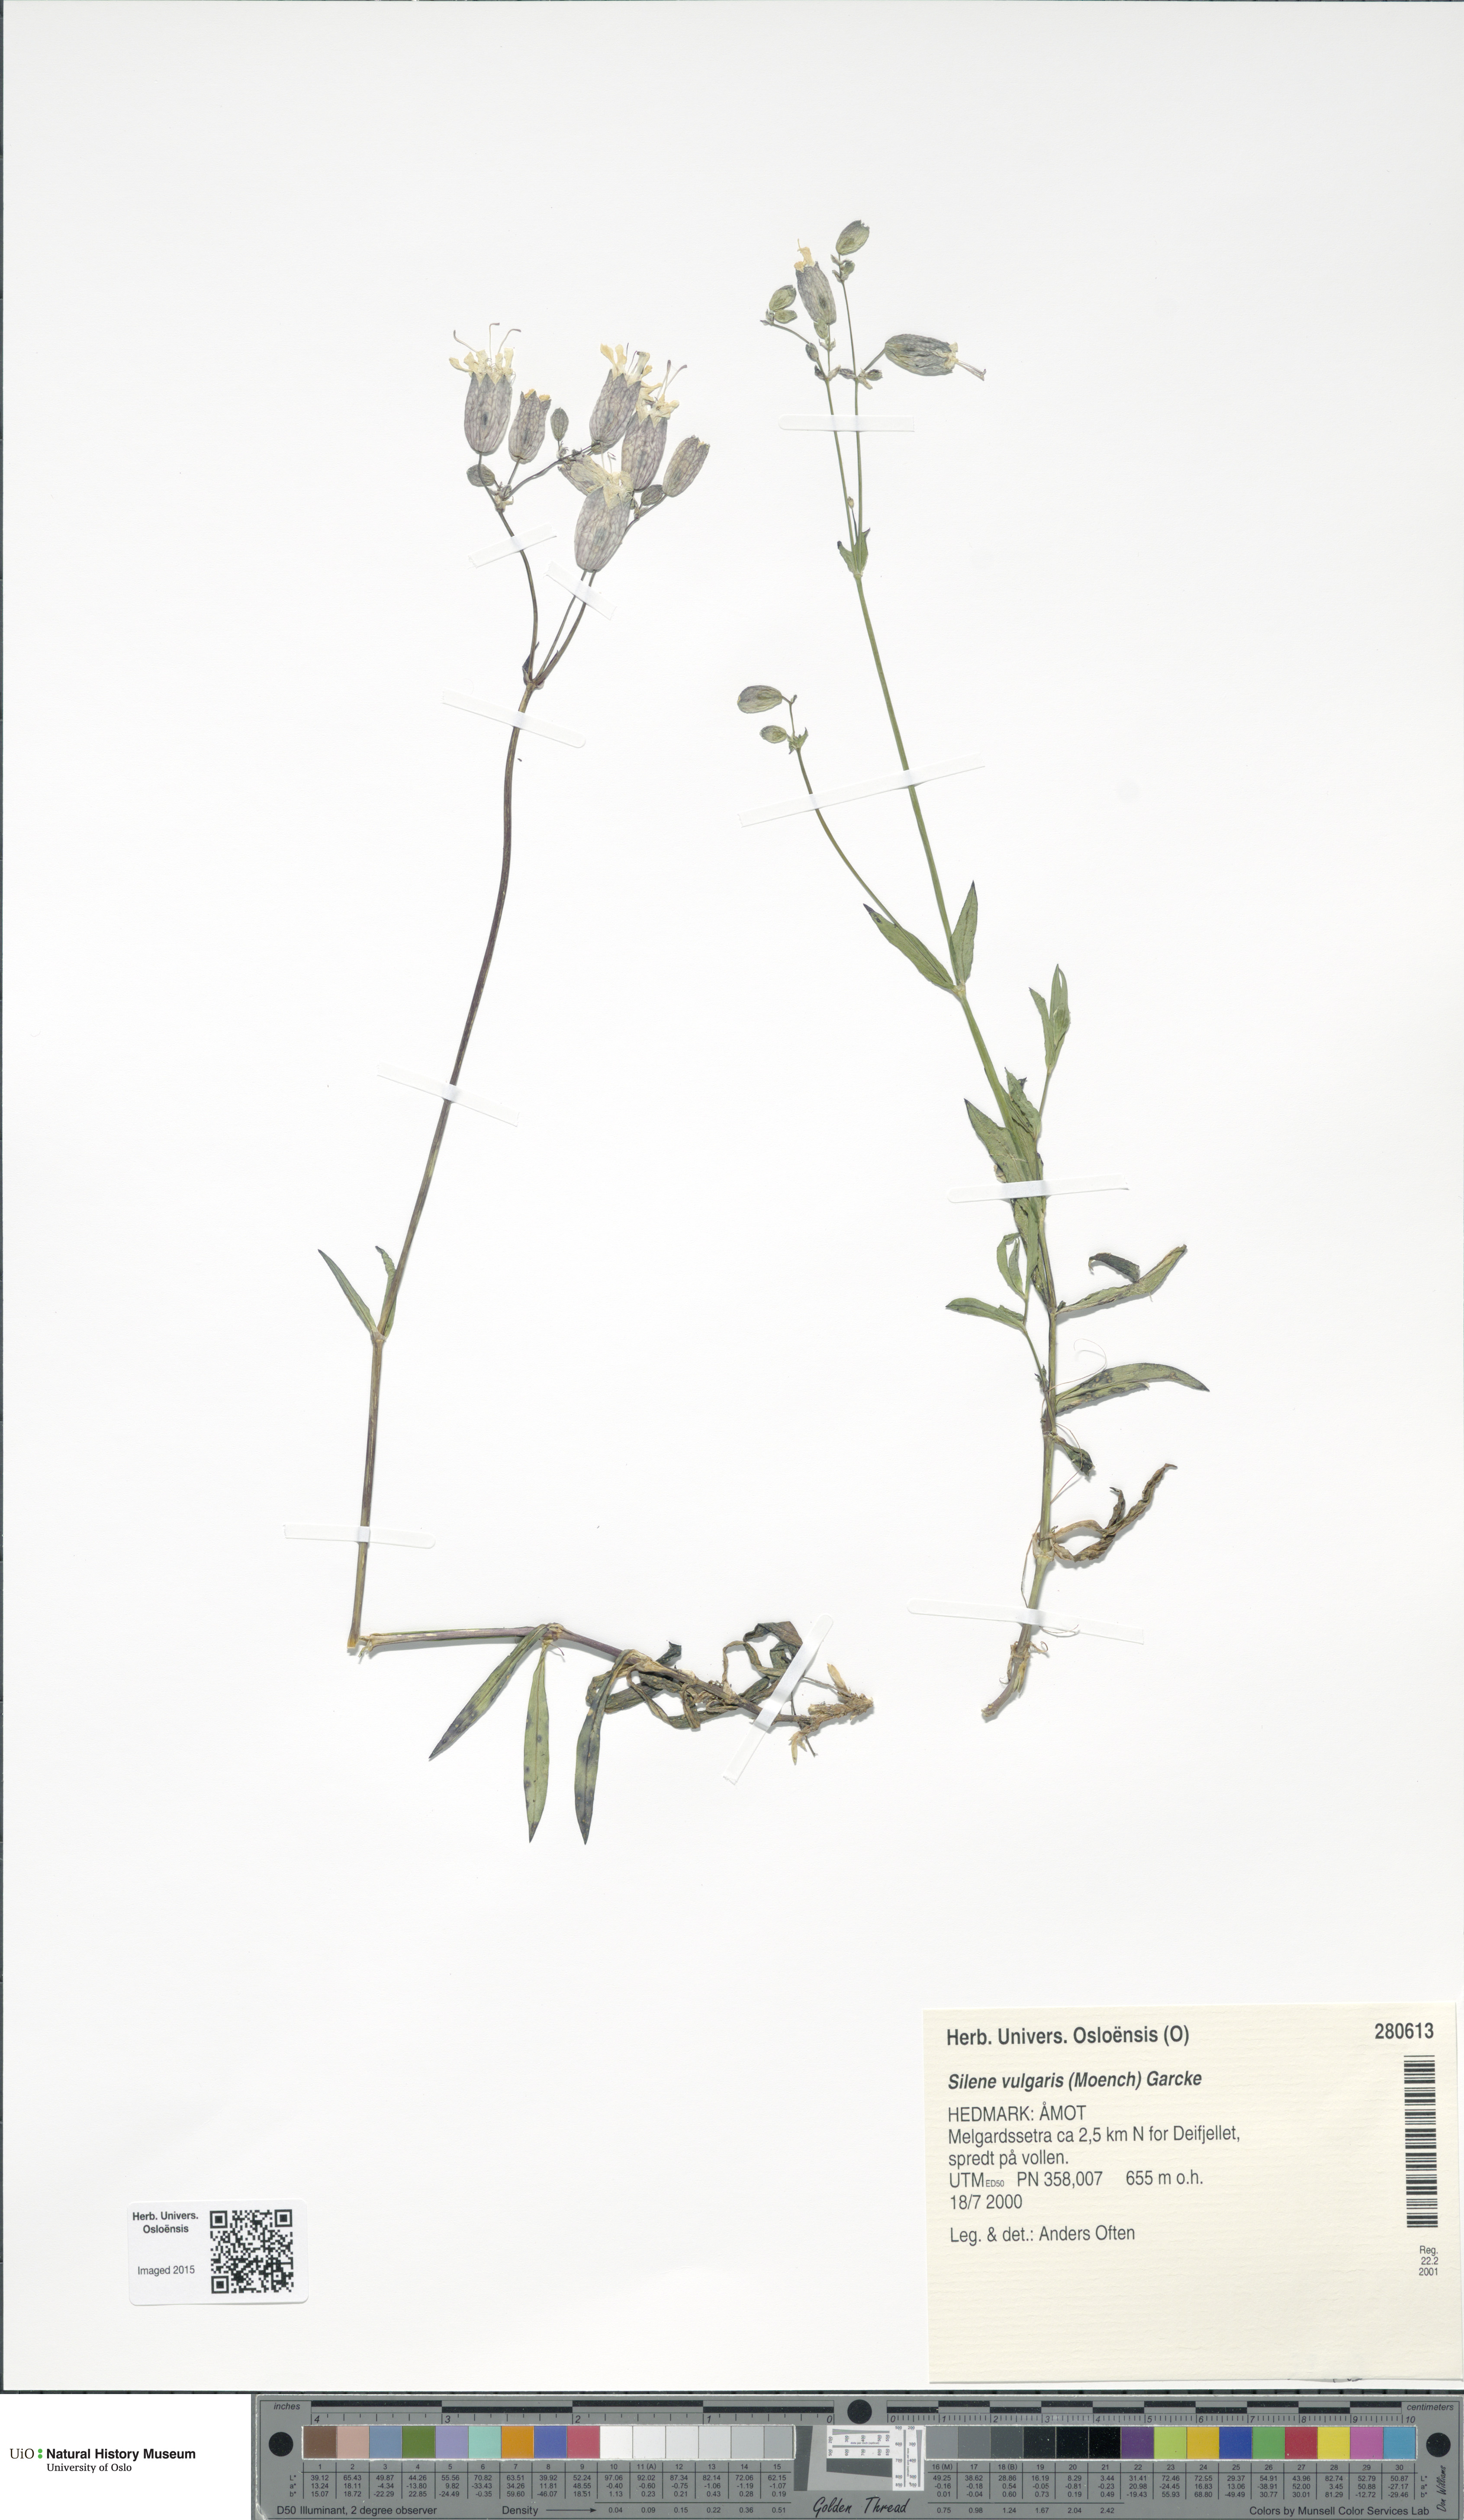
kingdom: Plantae
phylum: Tracheophyta
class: Magnoliopsida
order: Caryophyllales
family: Caryophyllaceae
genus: Silene
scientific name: Silene vulgaris
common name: Bladder campion
